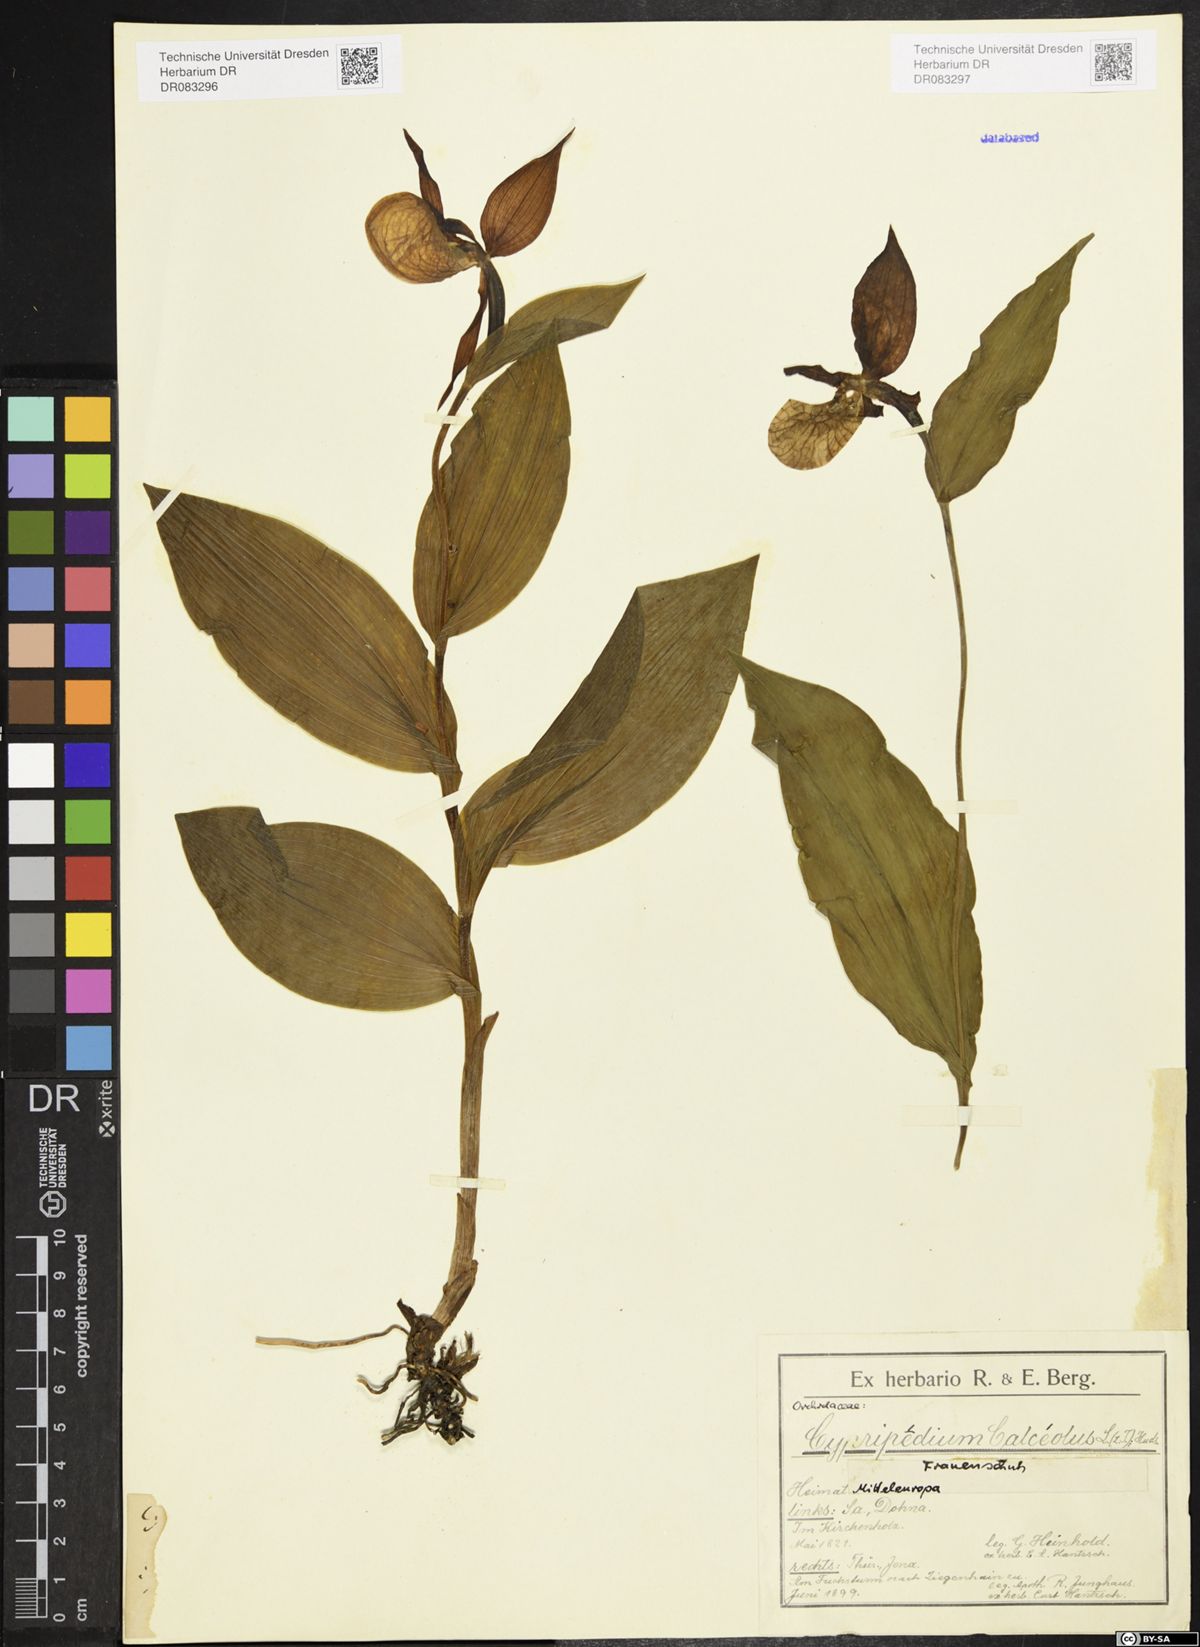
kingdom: Plantae
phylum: Tracheophyta
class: Liliopsida
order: Asparagales
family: Orchidaceae
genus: Cypripedium
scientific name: Cypripedium calceolus
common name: Lady's-slipper
